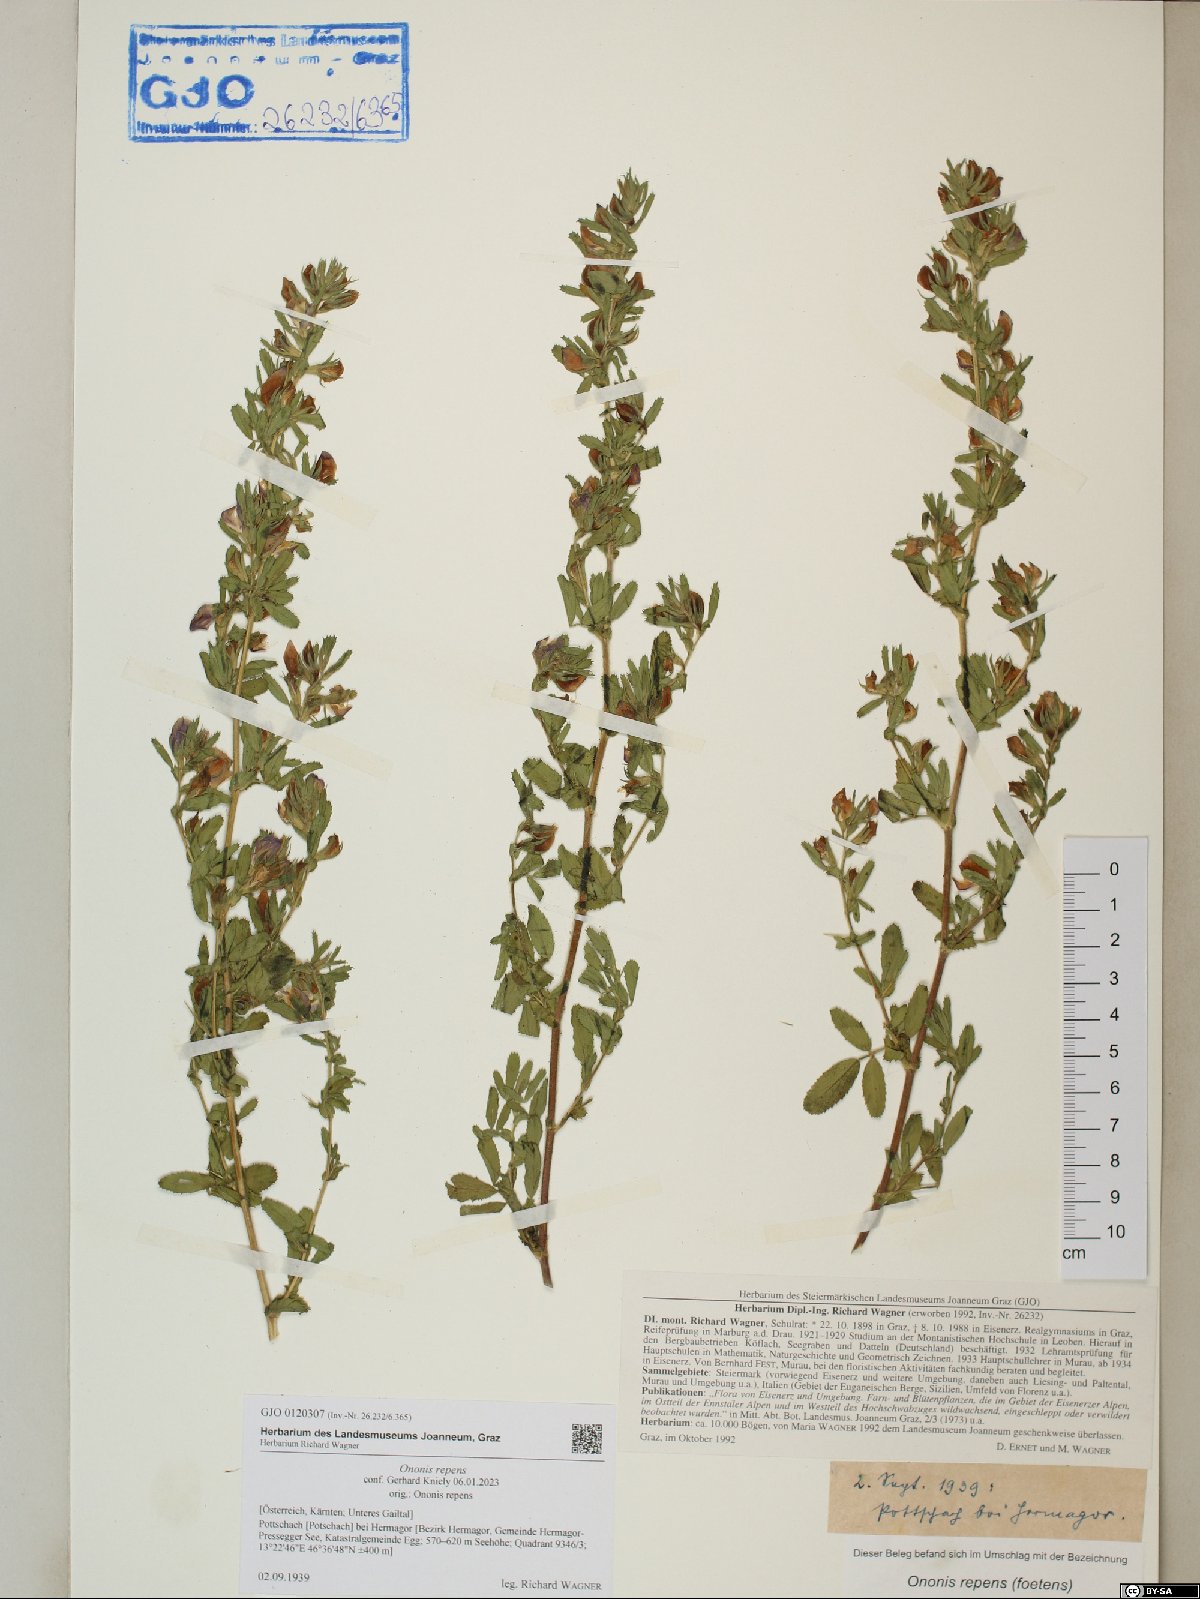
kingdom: Plantae
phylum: Tracheophyta
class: Magnoliopsida
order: Fabales
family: Fabaceae
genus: Ononis
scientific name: Ononis spinosa
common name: Spiny restharrow
